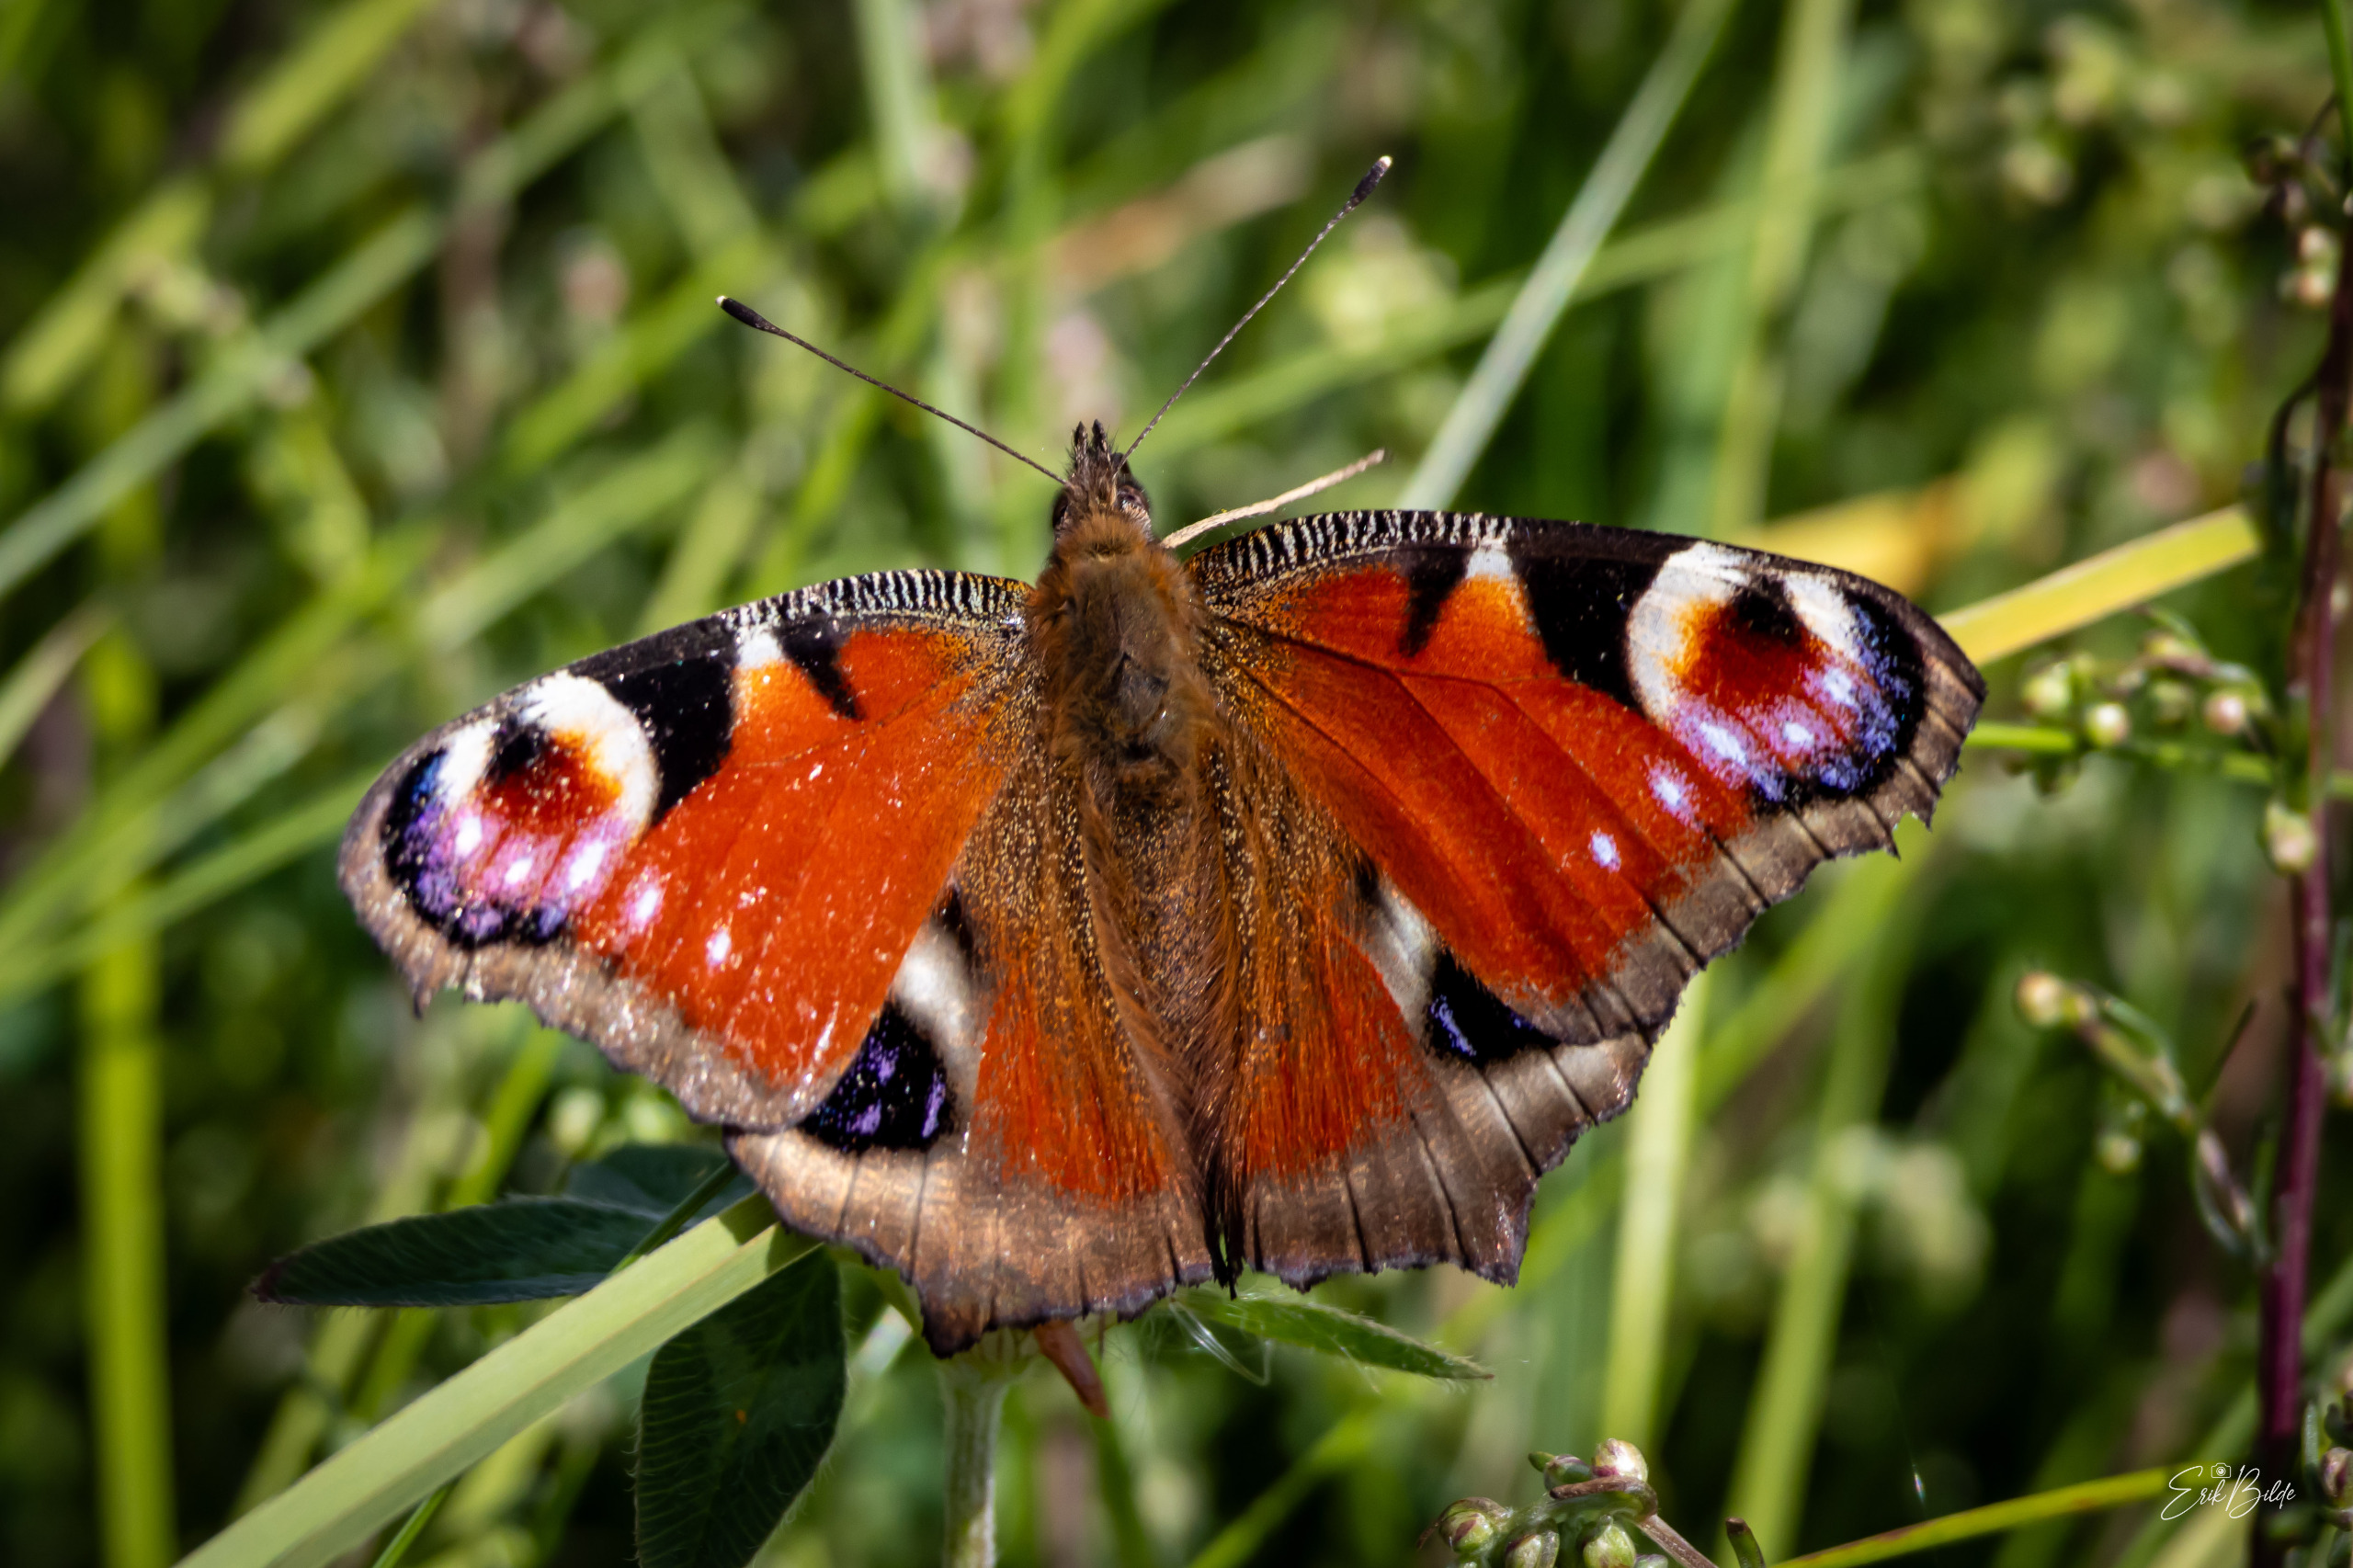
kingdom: Animalia
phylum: Arthropoda
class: Insecta
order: Lepidoptera
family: Nymphalidae
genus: Aglais
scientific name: Aglais io
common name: Dagpåfugleøje
